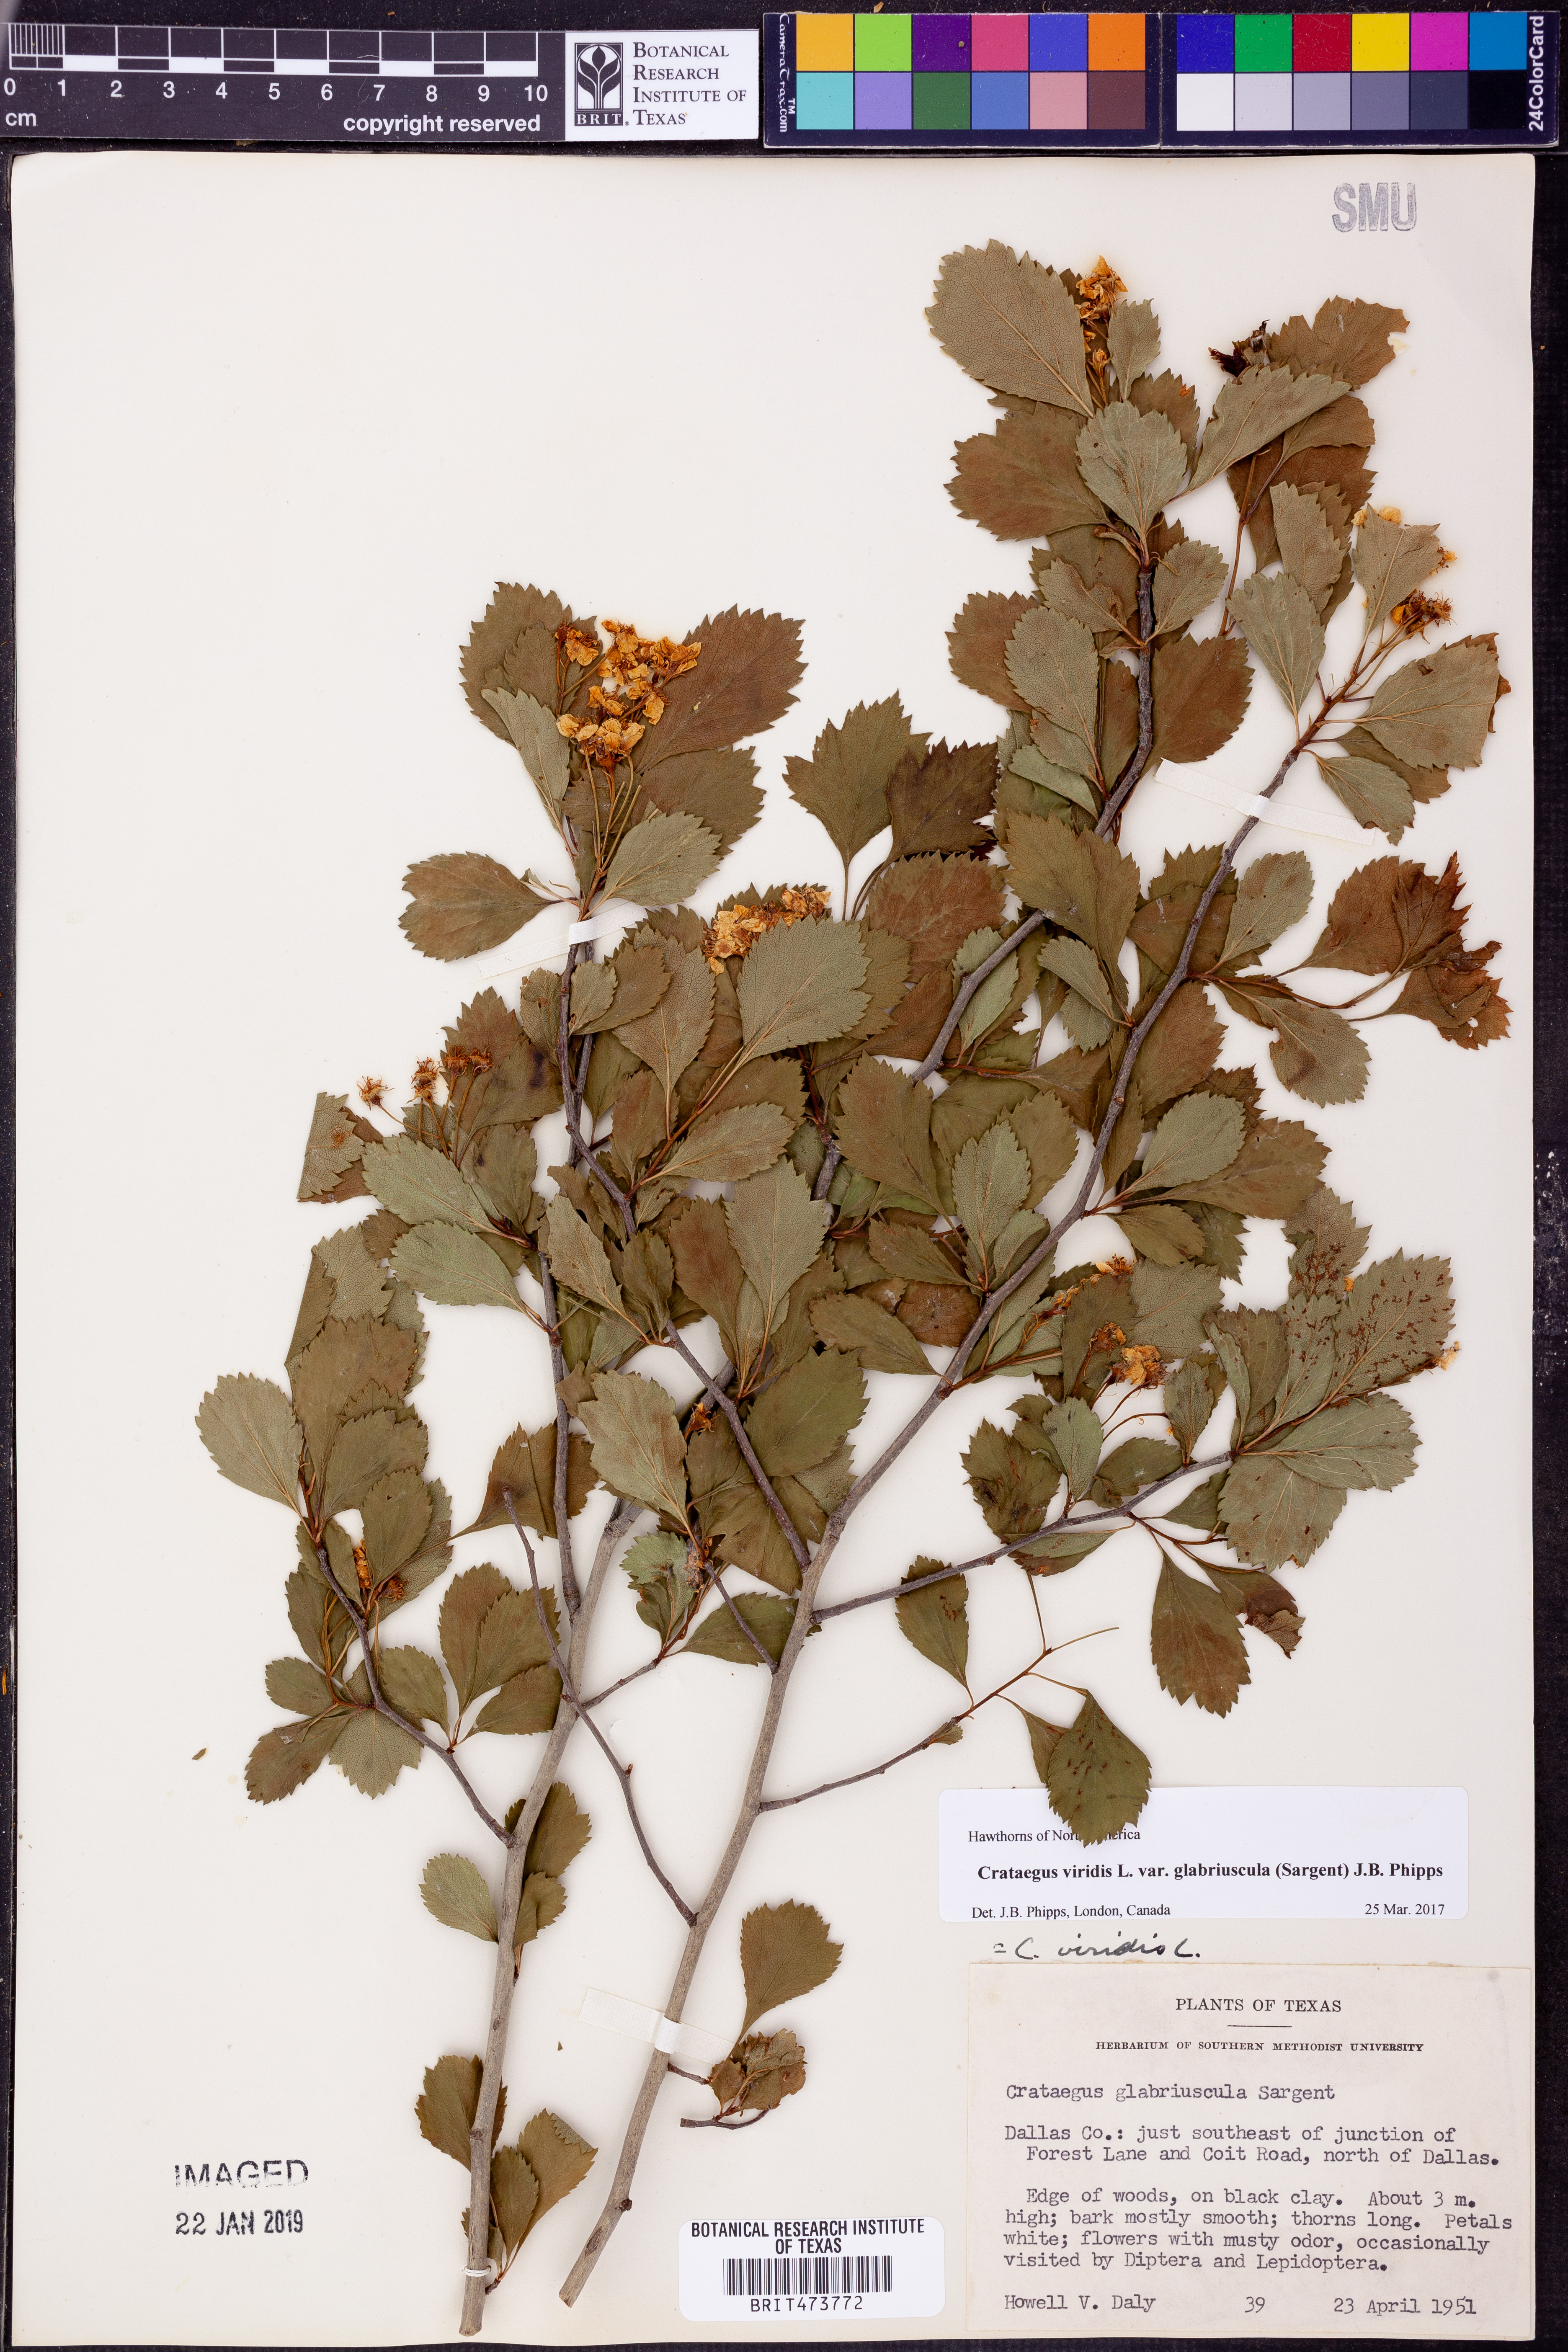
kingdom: Plantae
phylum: Tracheophyta
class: Magnoliopsida
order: Rosales
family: Rosaceae
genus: Crataegus
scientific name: Crataegus viridis
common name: Southernthorn
